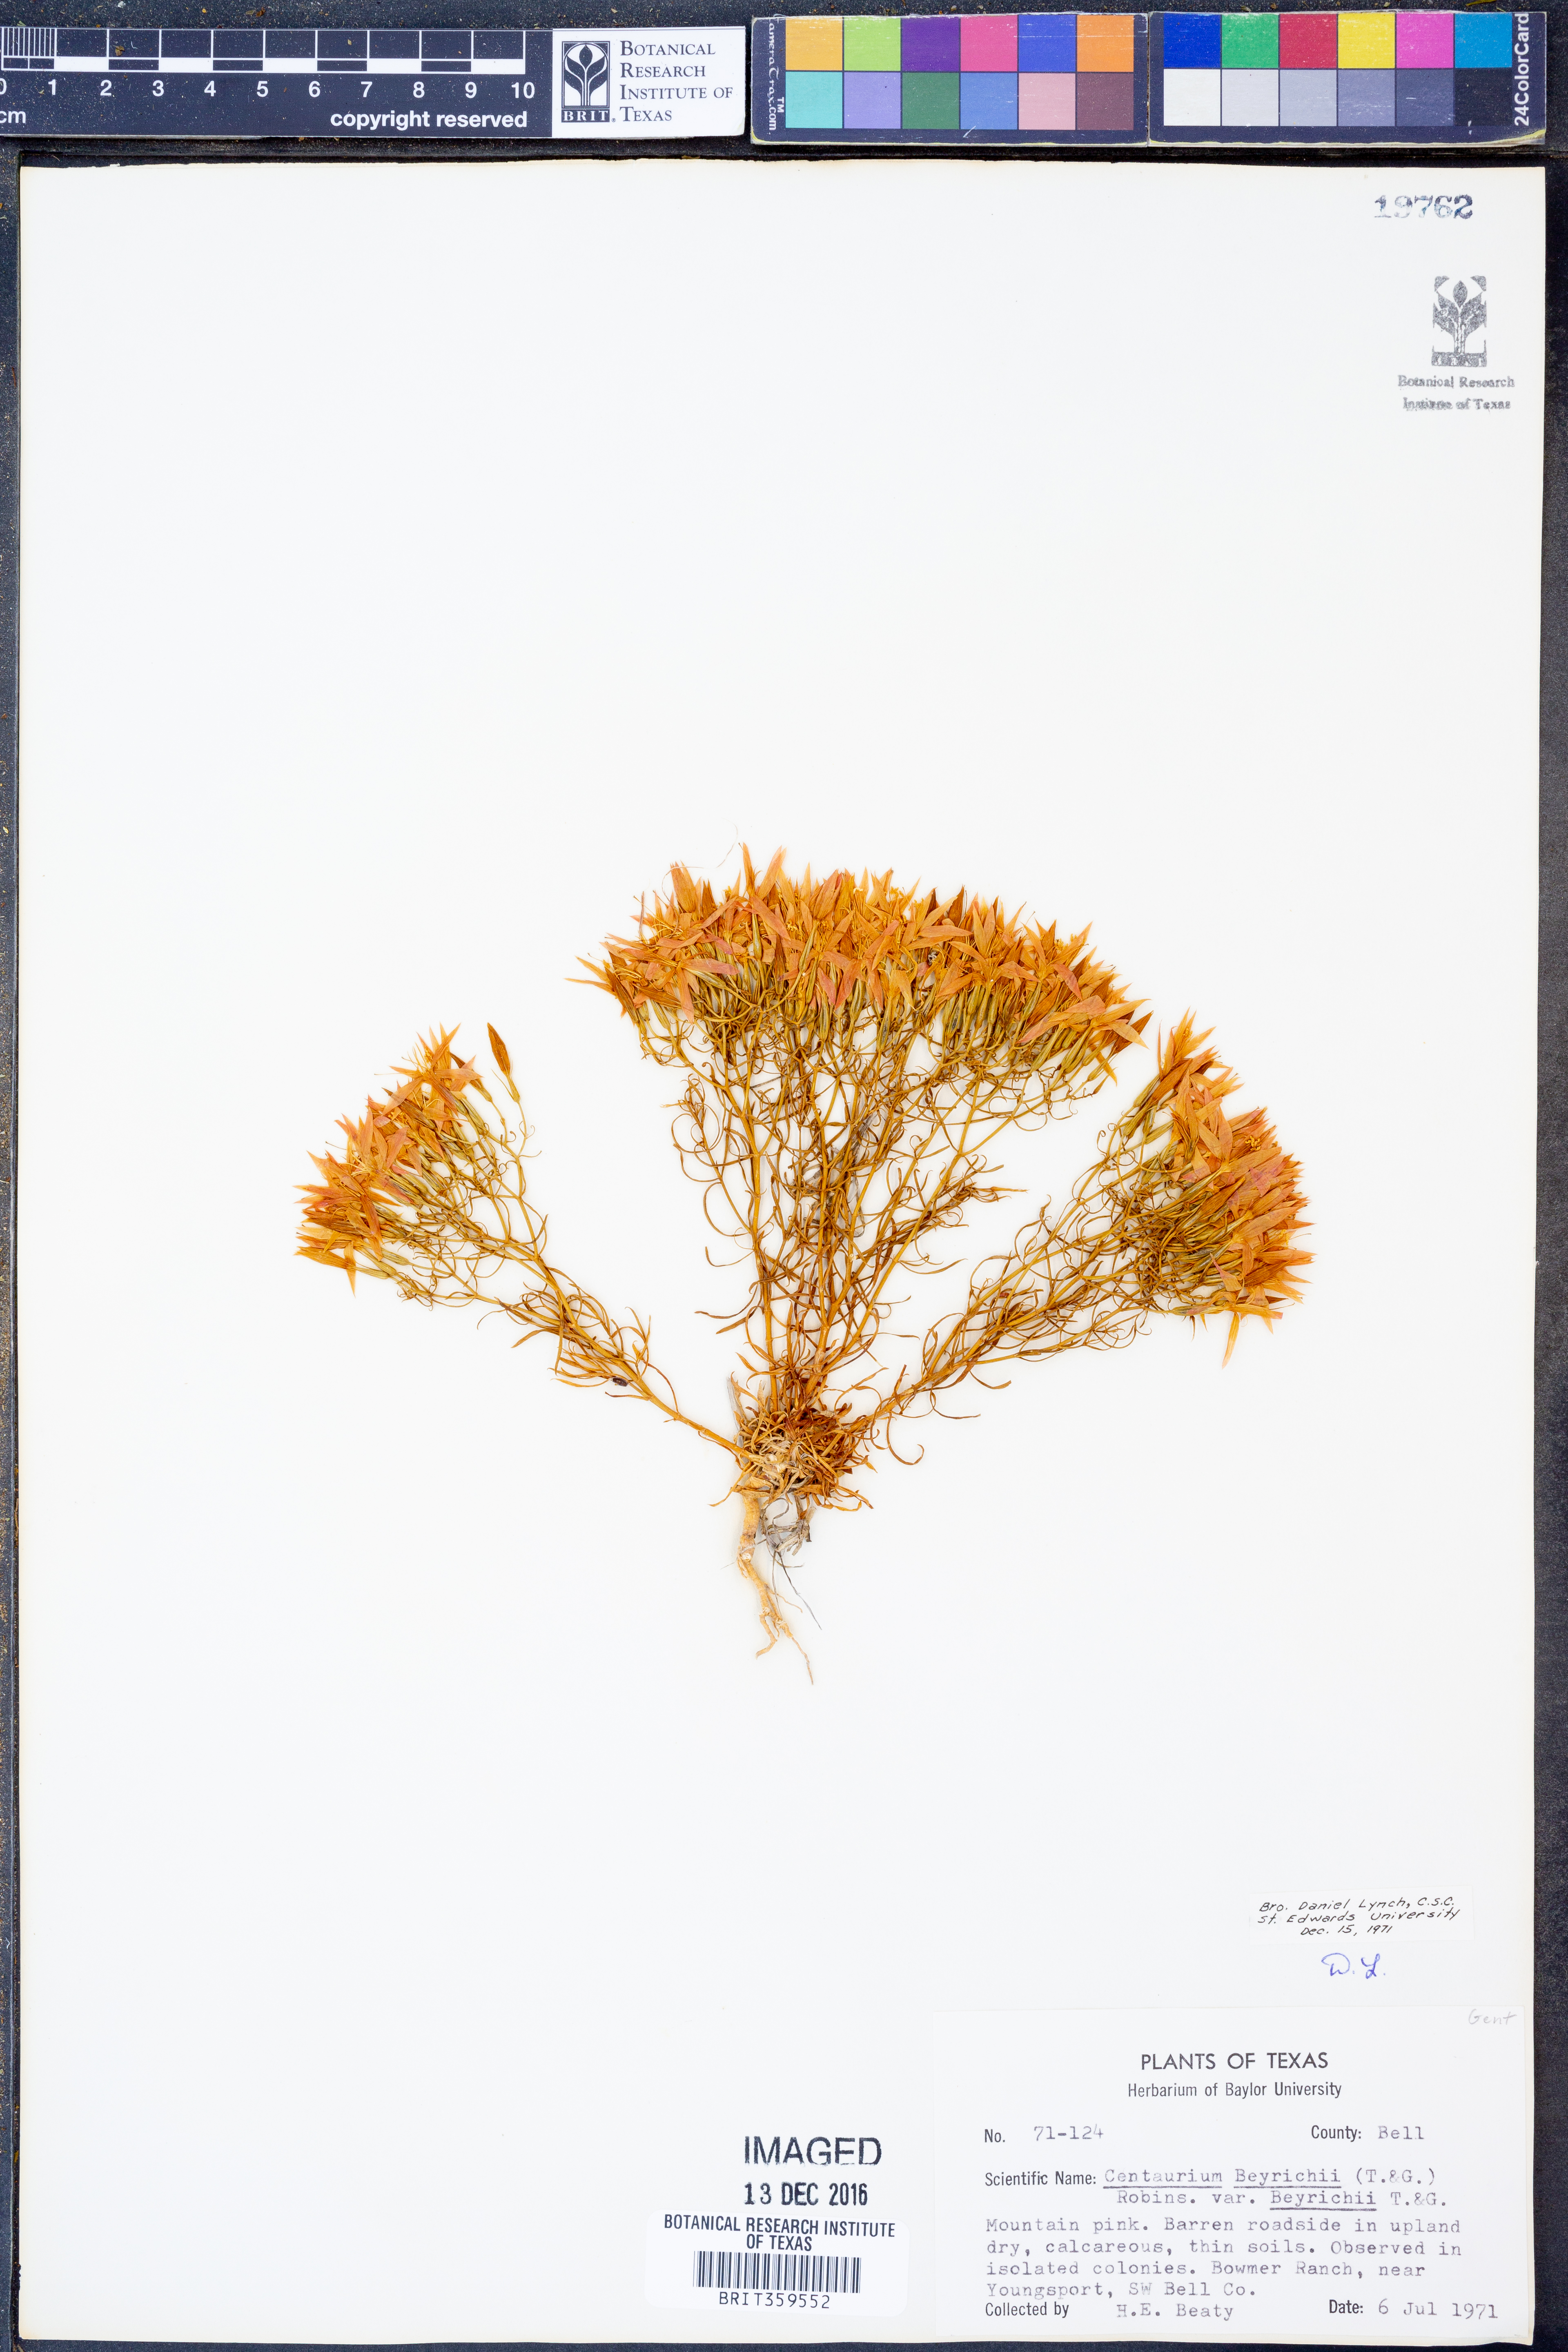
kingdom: Plantae
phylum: Tracheophyta
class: Magnoliopsida
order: Gentianales
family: Gentianaceae
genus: Zeltnera
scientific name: Zeltnera beyrichii
